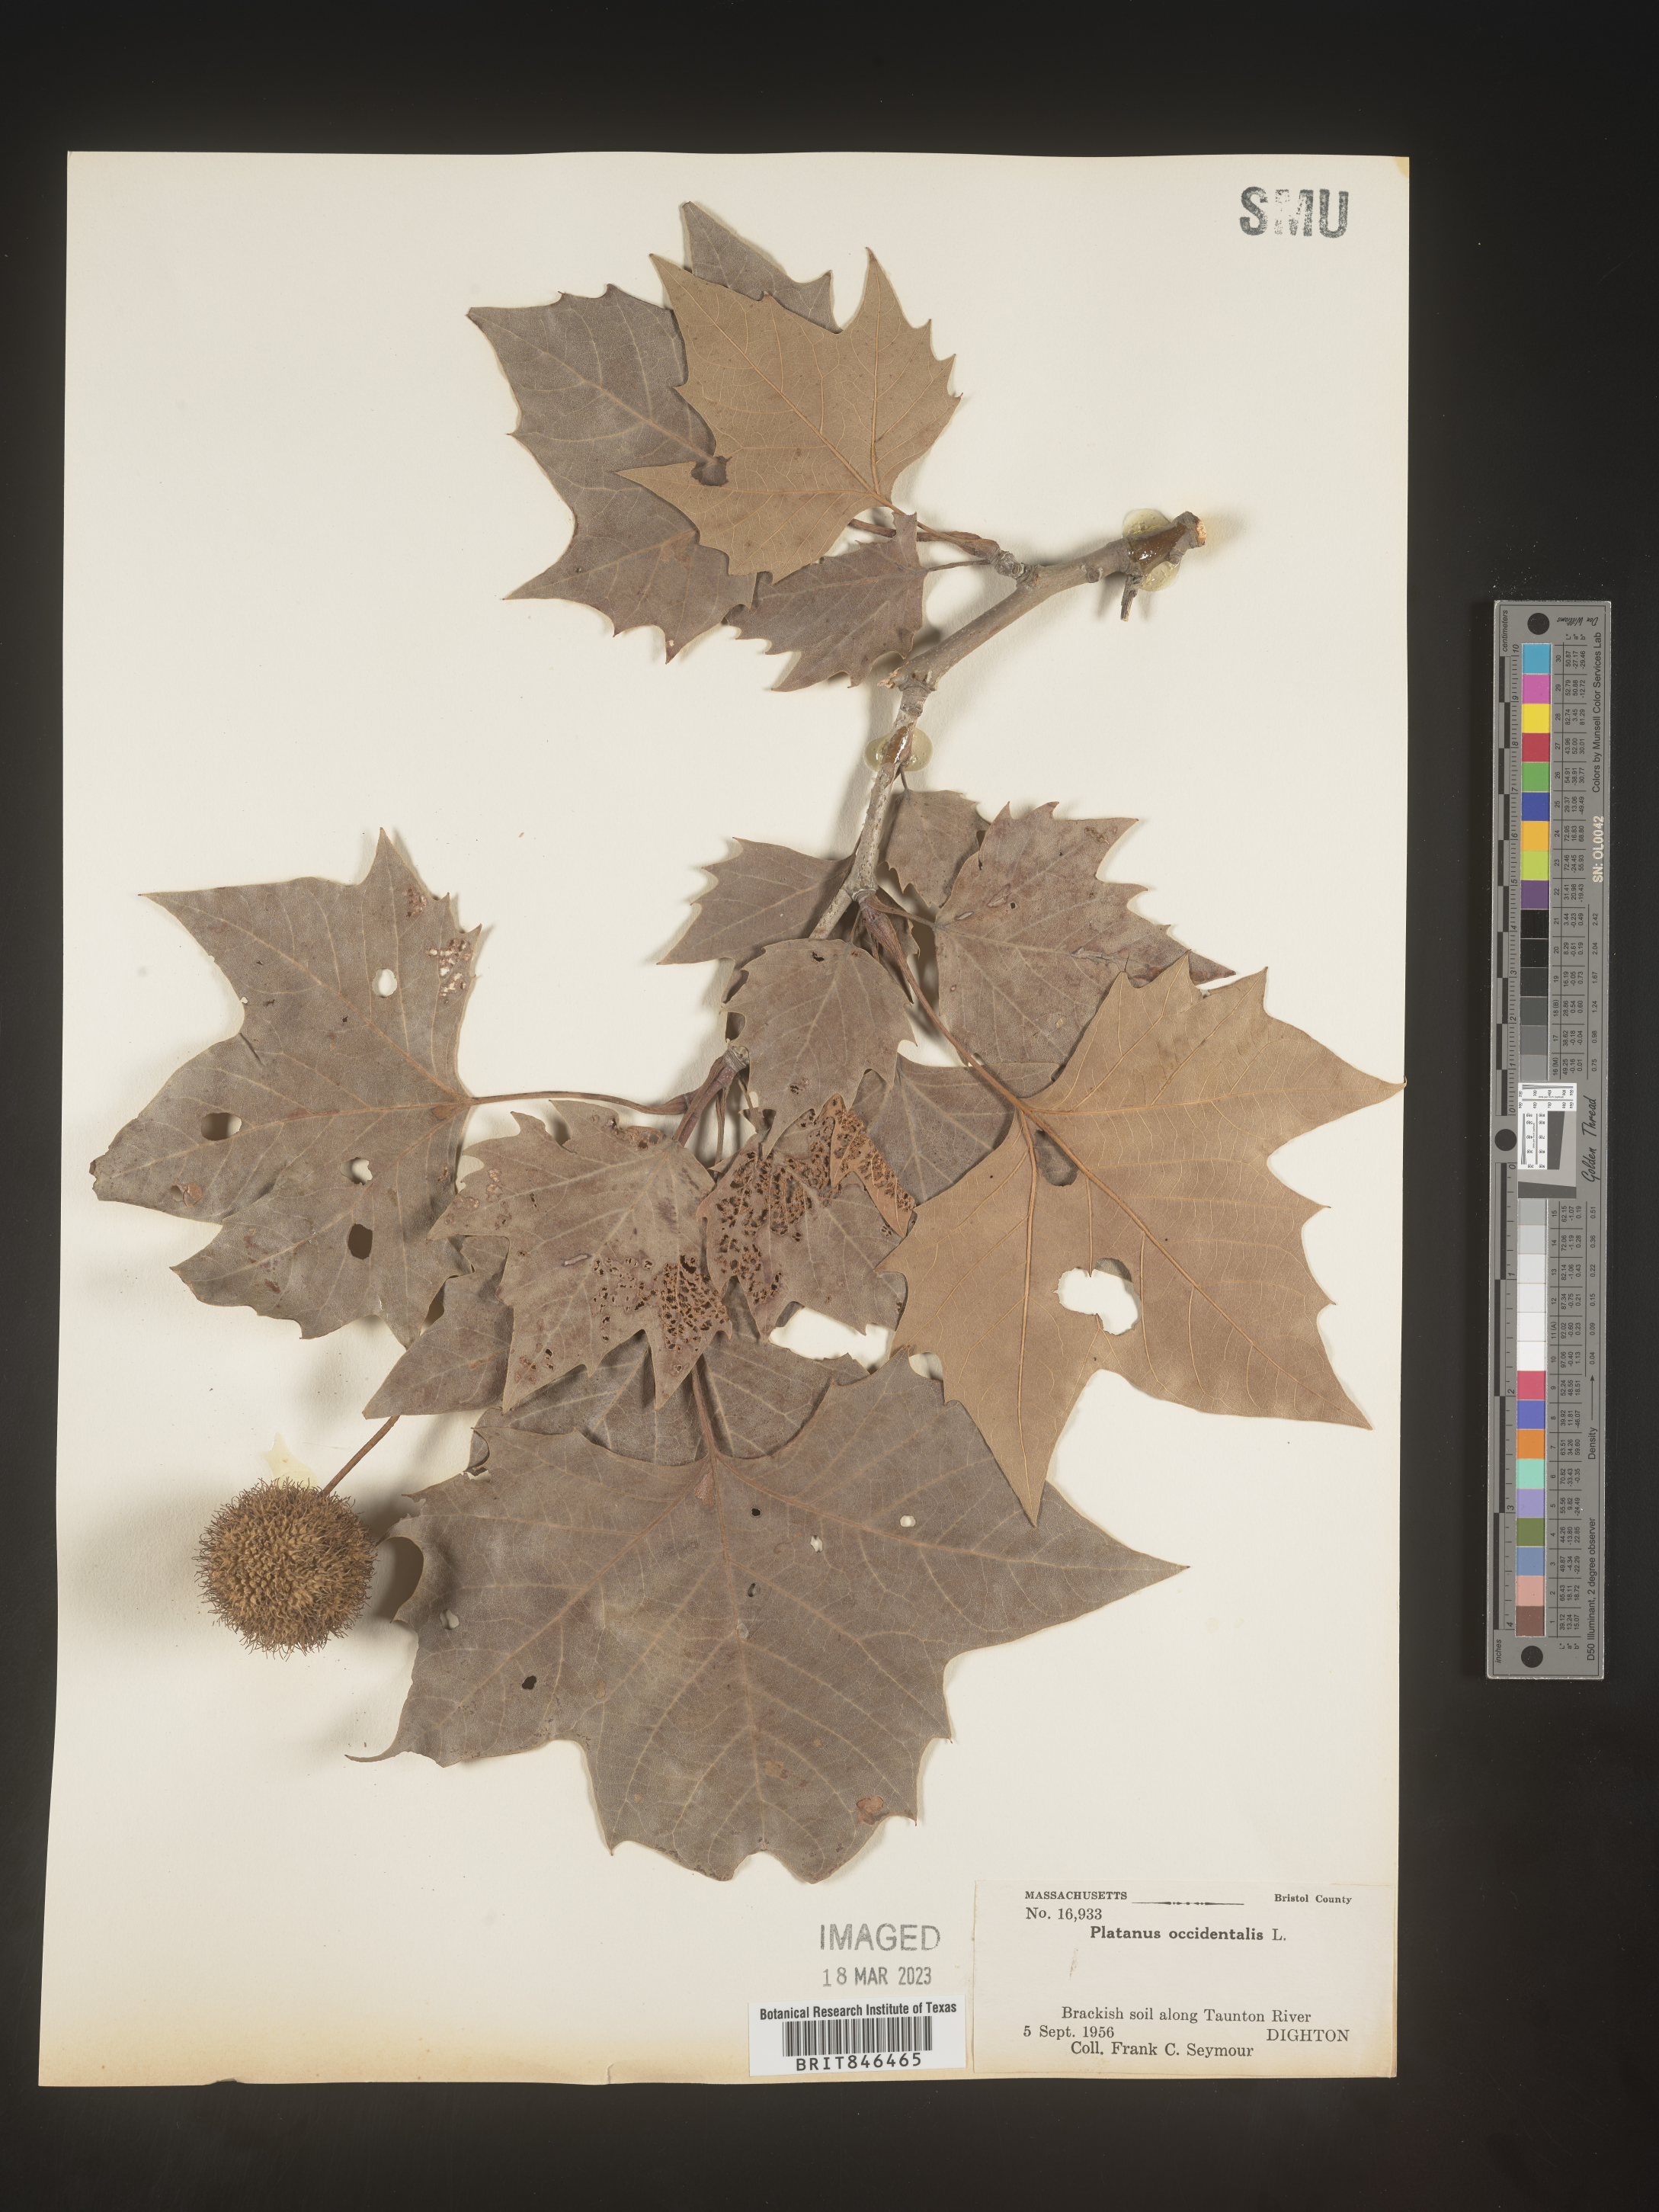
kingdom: Plantae
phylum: Tracheophyta
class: Magnoliopsida
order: Proteales
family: Platanaceae
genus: Platanus
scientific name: Platanus occidentalis
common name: American sycamore
